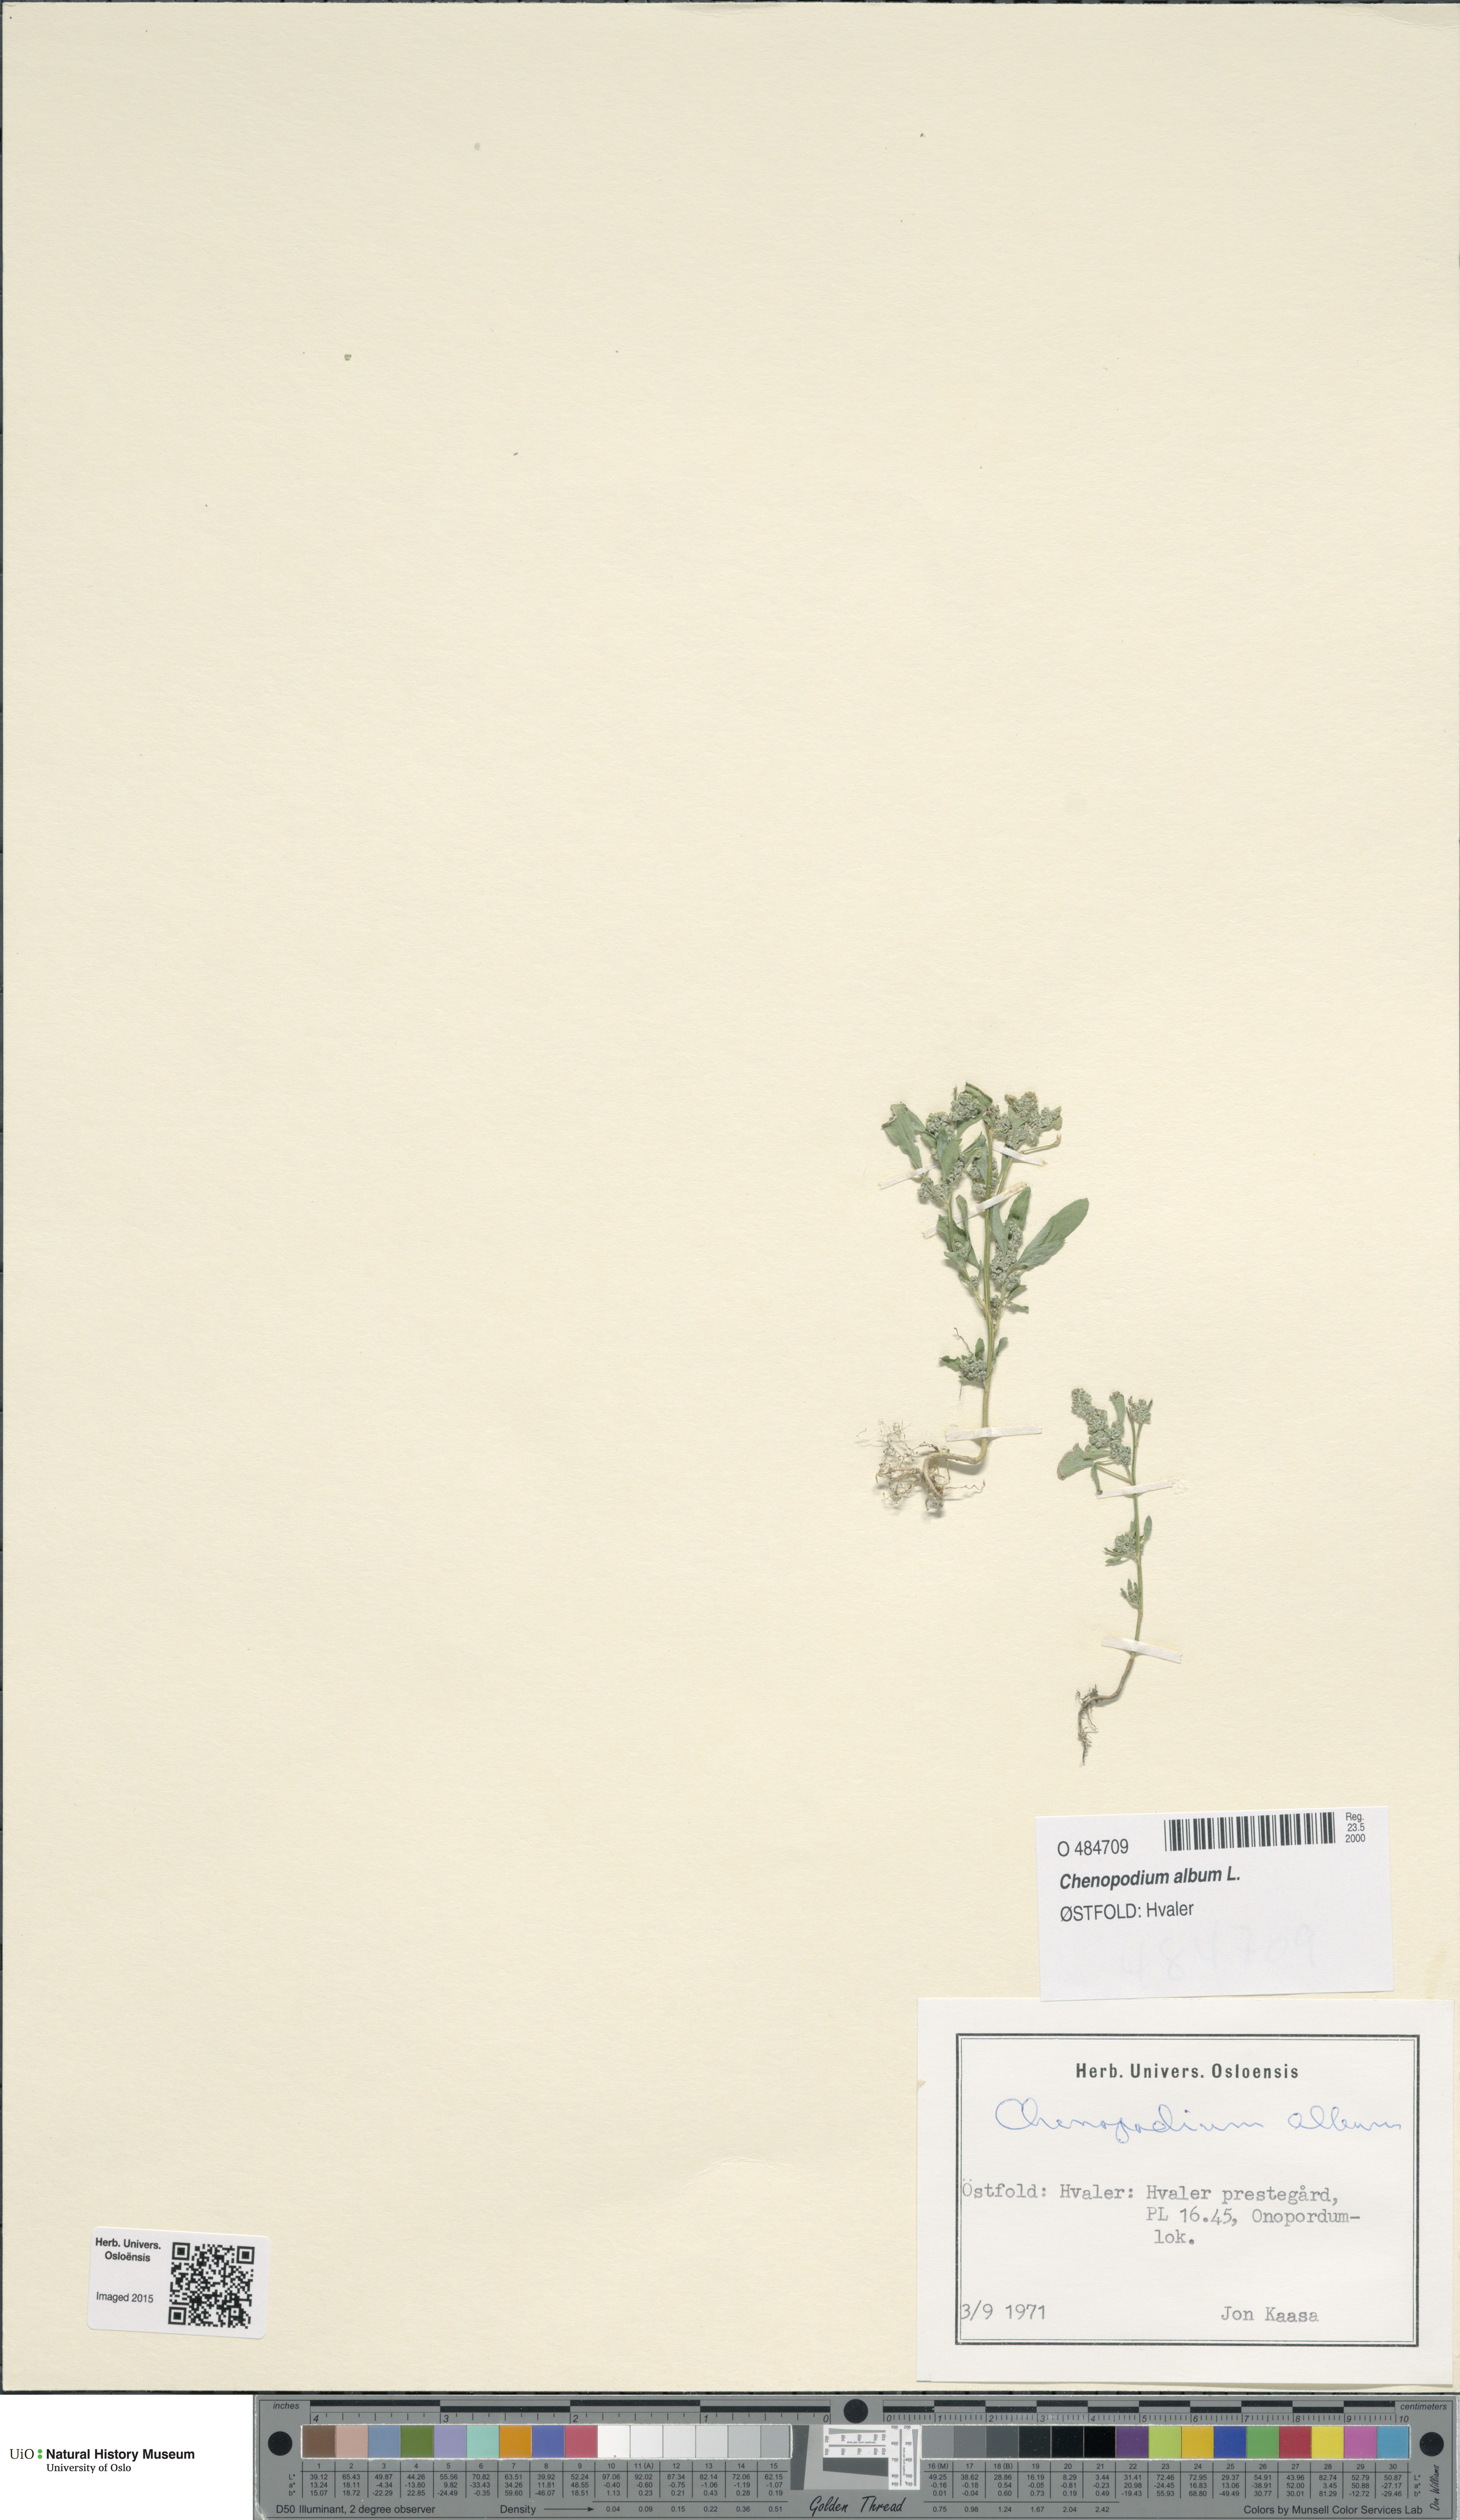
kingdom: Plantae
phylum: Tracheophyta
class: Magnoliopsida
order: Caryophyllales
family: Amaranthaceae
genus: Chenopodium
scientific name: Chenopodium album
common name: Fat-hen
